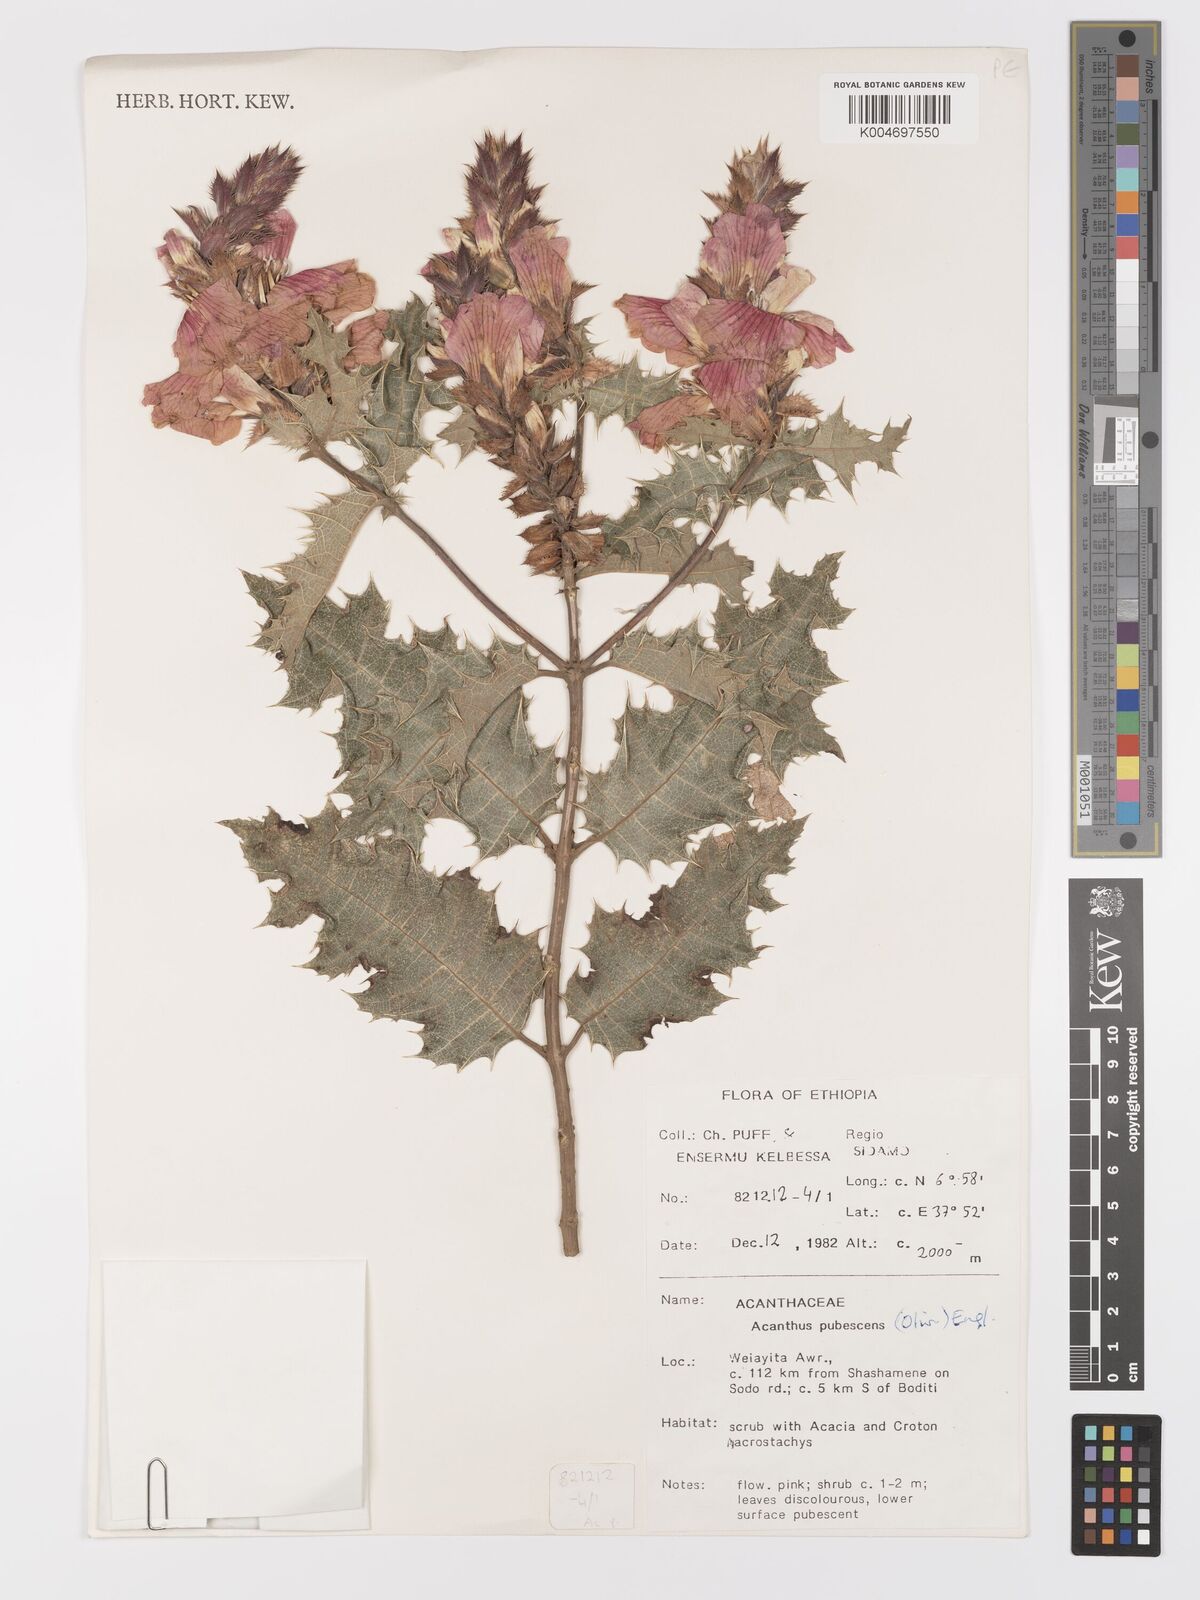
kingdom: Plantae
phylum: Tracheophyta
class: Magnoliopsida
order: Lamiales
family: Acanthaceae
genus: Acanthus
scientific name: Acanthus polystachyus
